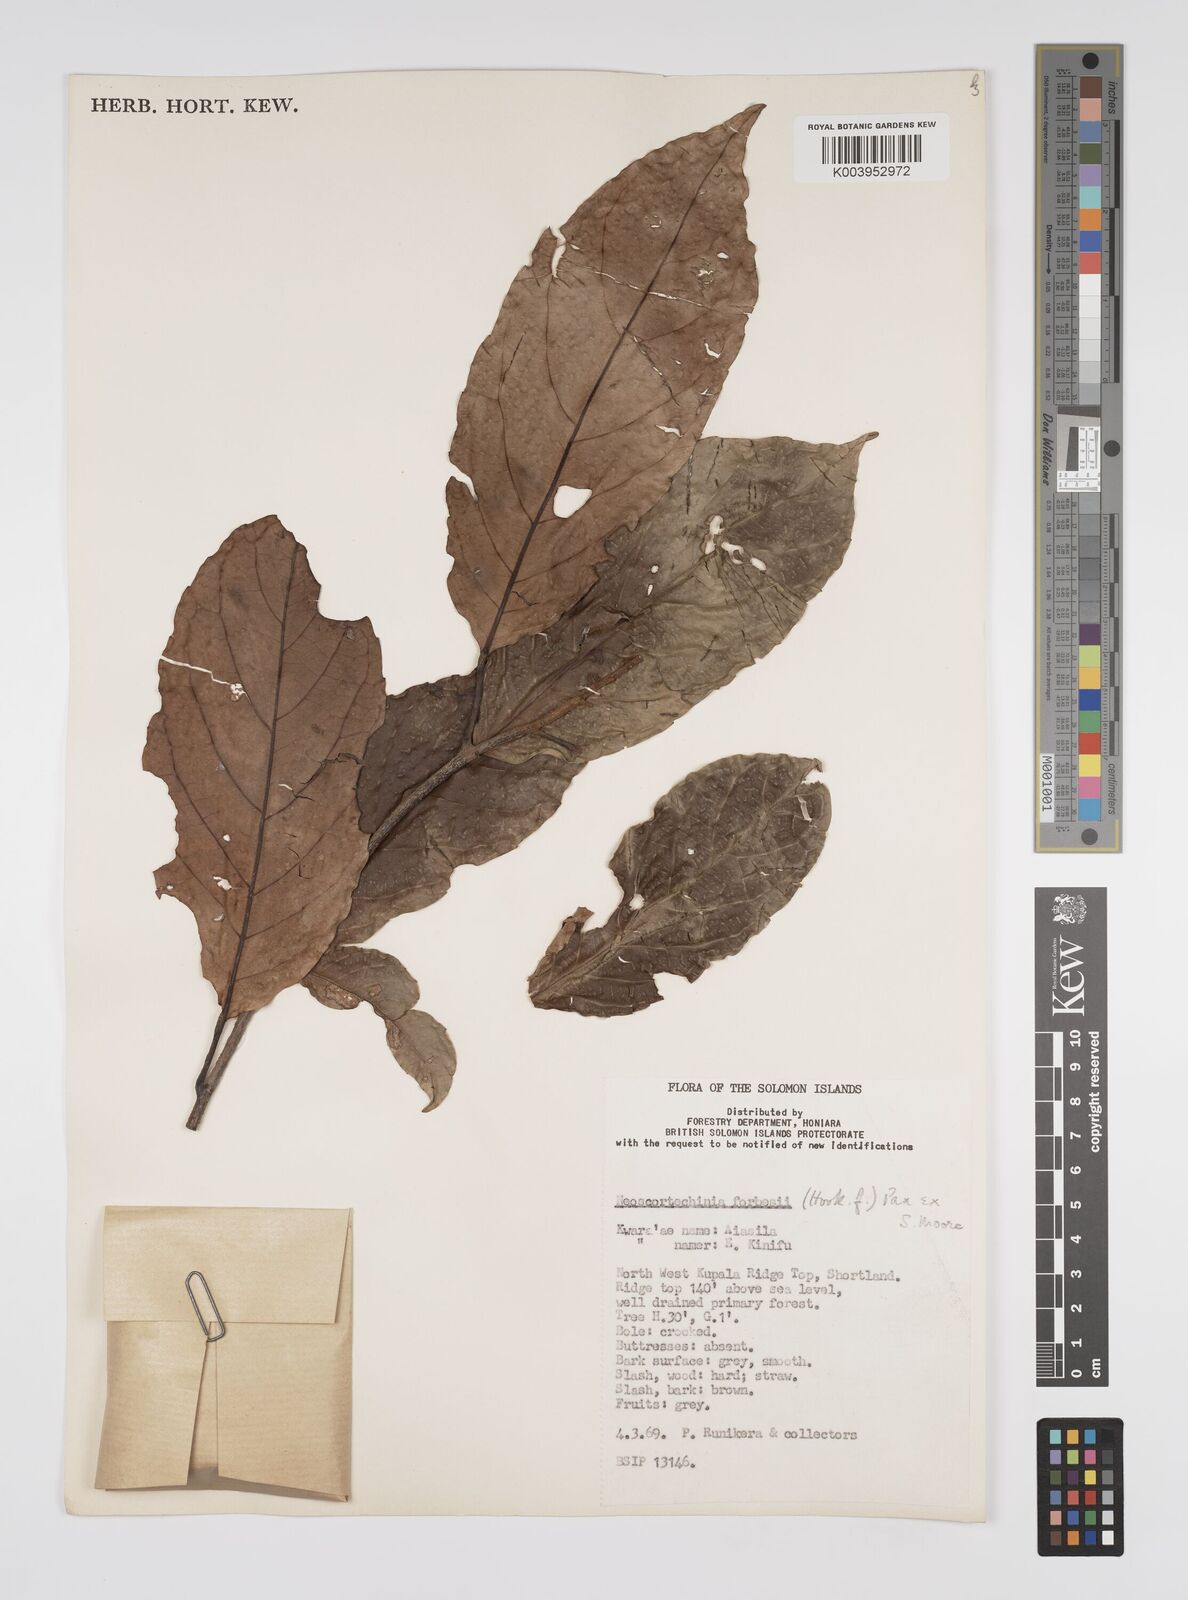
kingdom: Plantae
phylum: Tracheophyta
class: Magnoliopsida
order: Malpighiales
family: Euphorbiaceae
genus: Neoscortechinia
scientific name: Neoscortechinia forbesii
